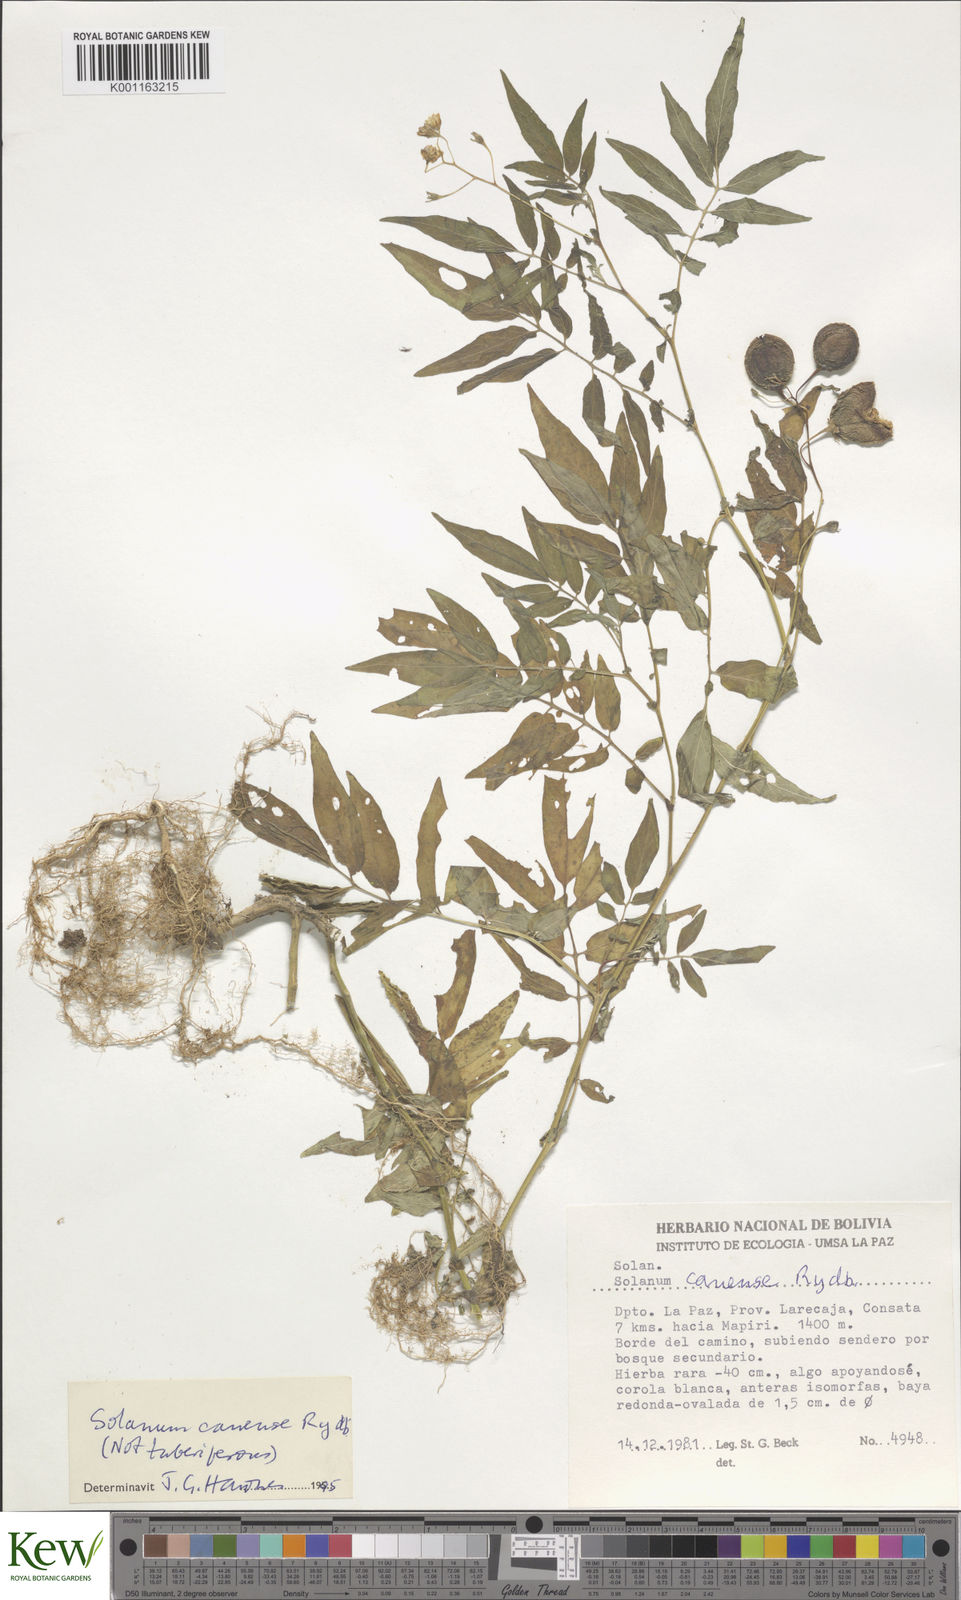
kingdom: Plantae
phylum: Tracheophyta
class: Magnoliopsida
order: Solanales
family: Solanaceae
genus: Solanum
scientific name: Solanum canense
